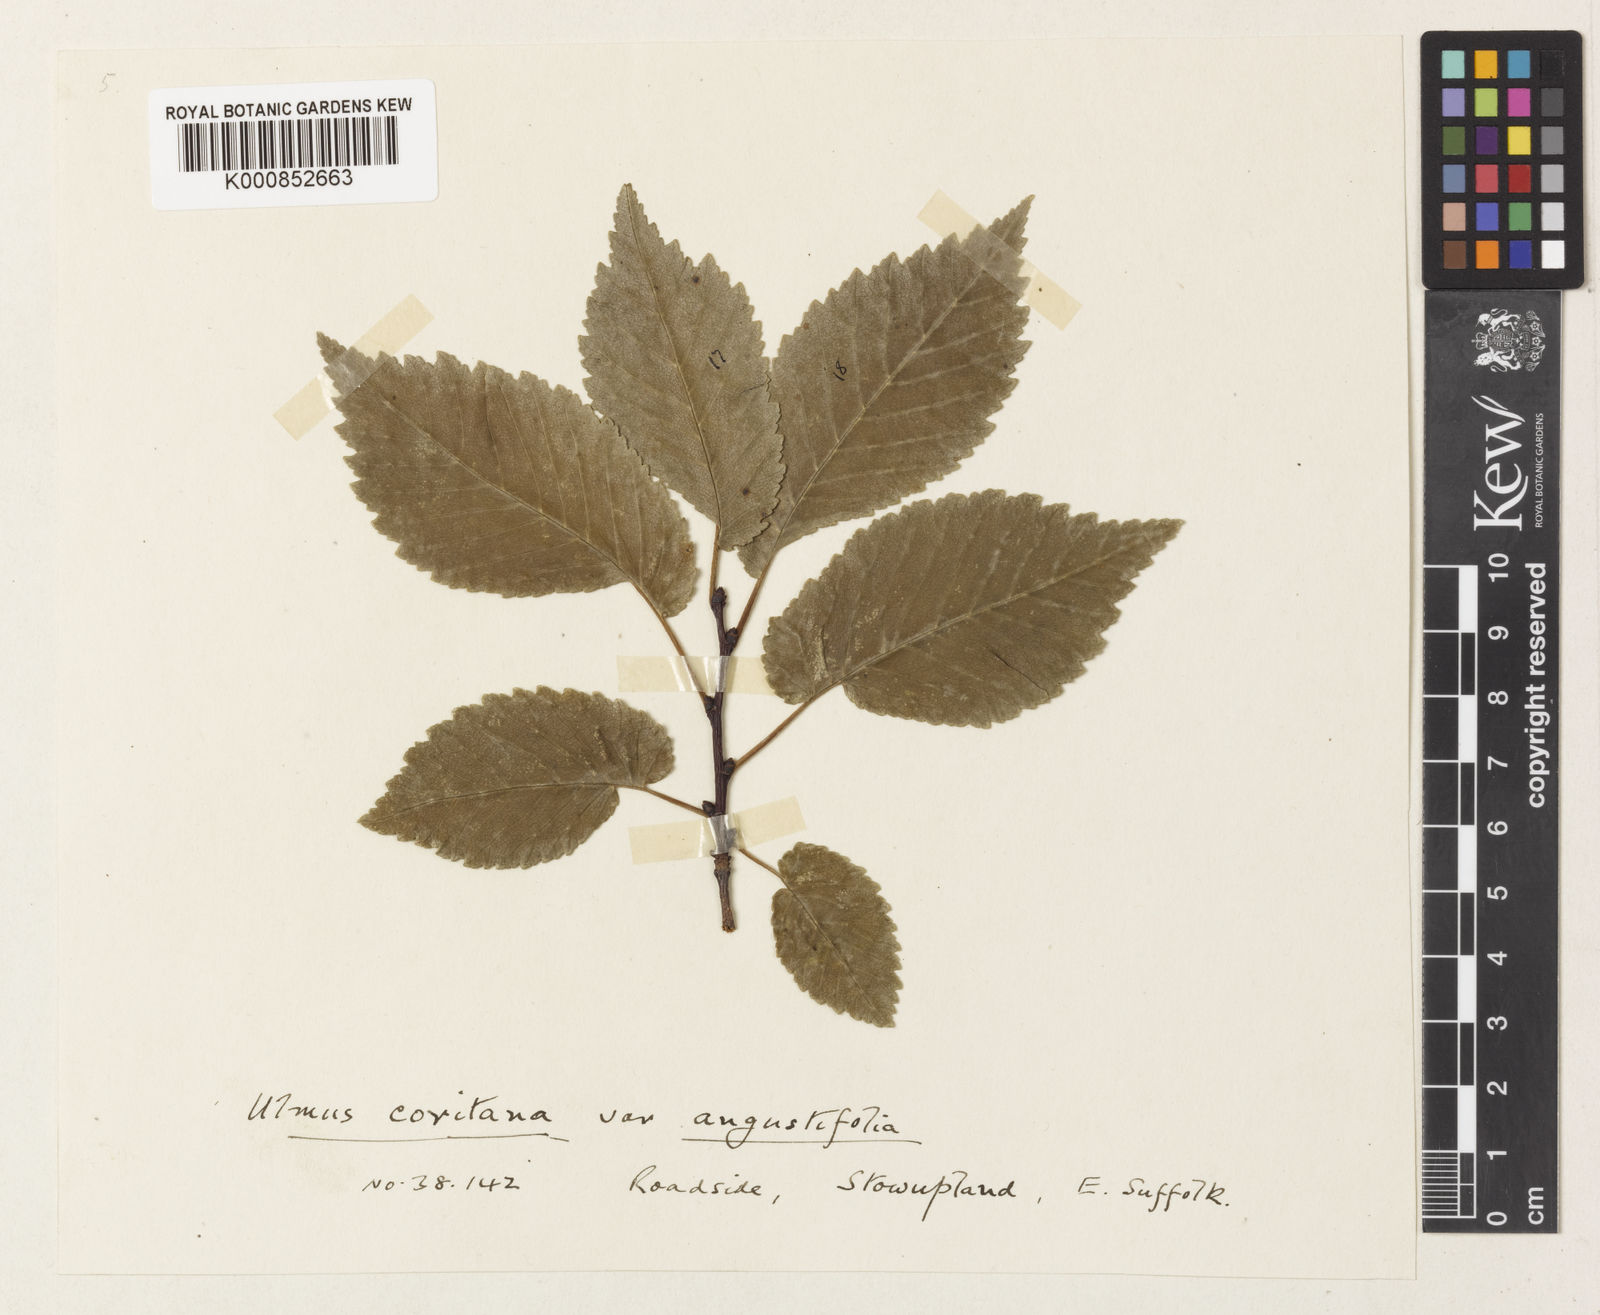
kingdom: Plantae
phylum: Tracheophyta
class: Magnoliopsida
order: Rosales
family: Ulmaceae
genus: Ulmus
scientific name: Ulmus minor
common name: Small-leaved elm
